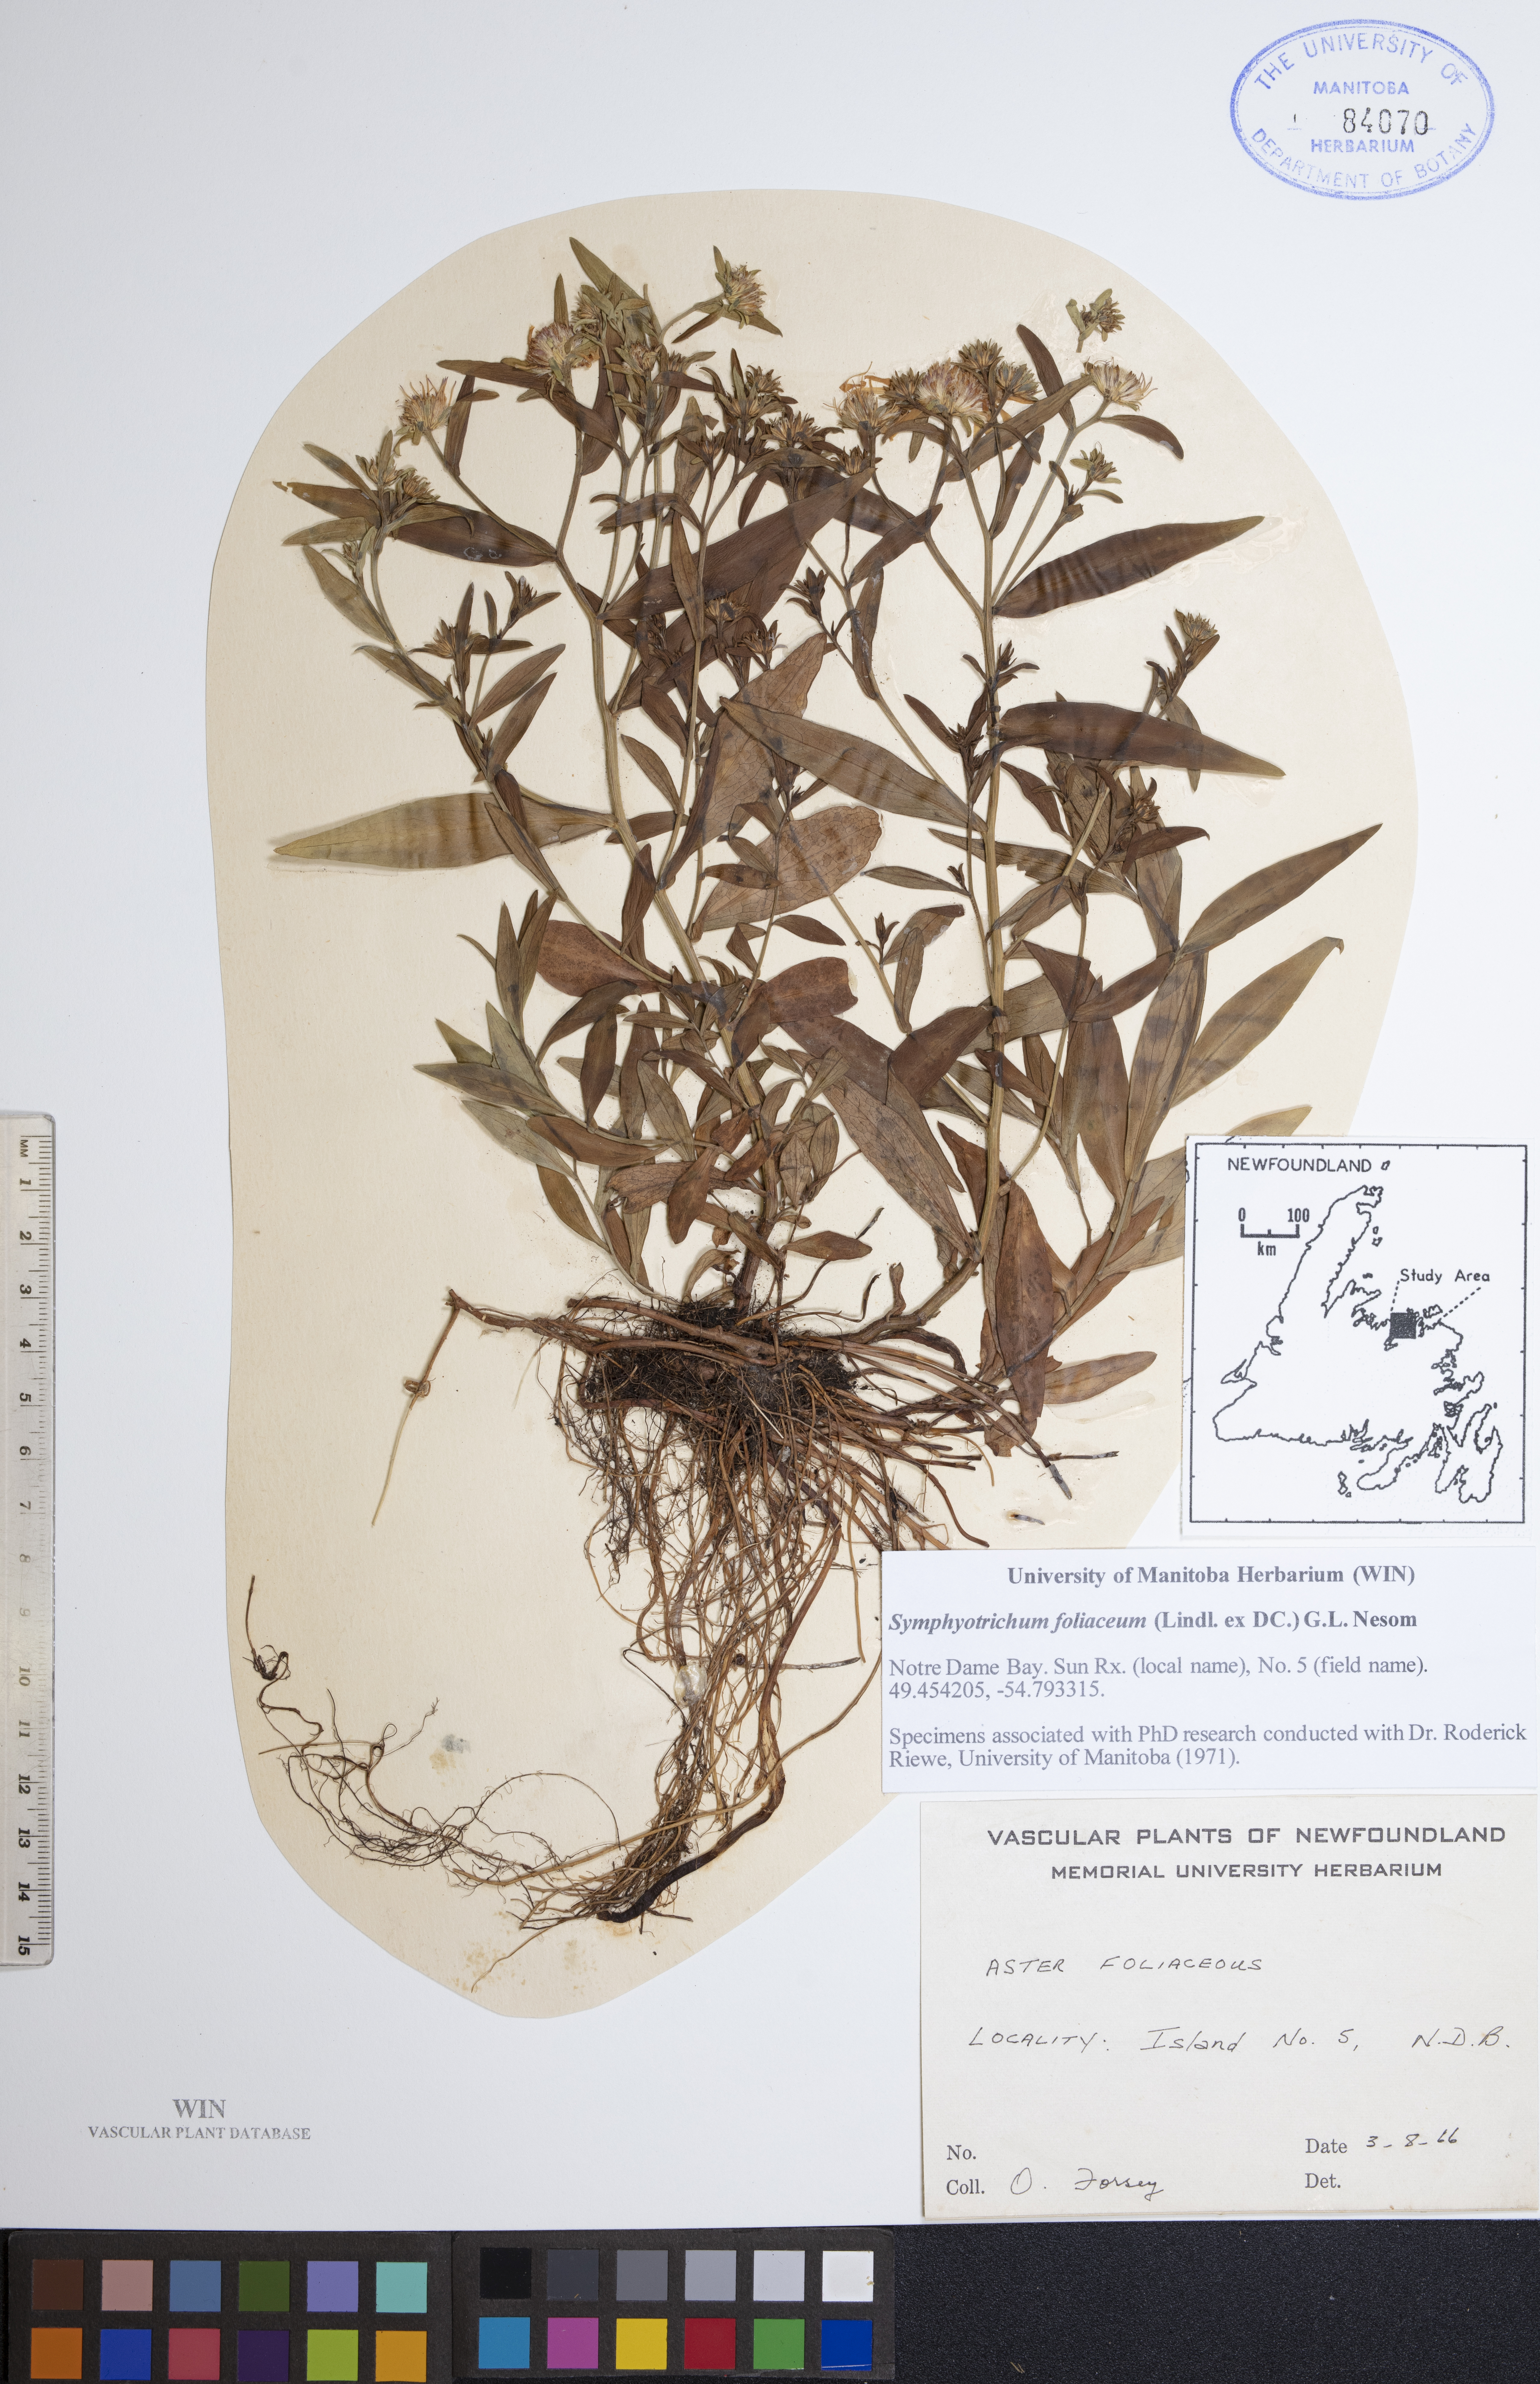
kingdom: Plantae
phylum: Tracheophyta
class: Magnoliopsida
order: Asterales
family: Asteraceae
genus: Symphyotrichum
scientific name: Symphyotrichum foliaceum
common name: Leafy aster
